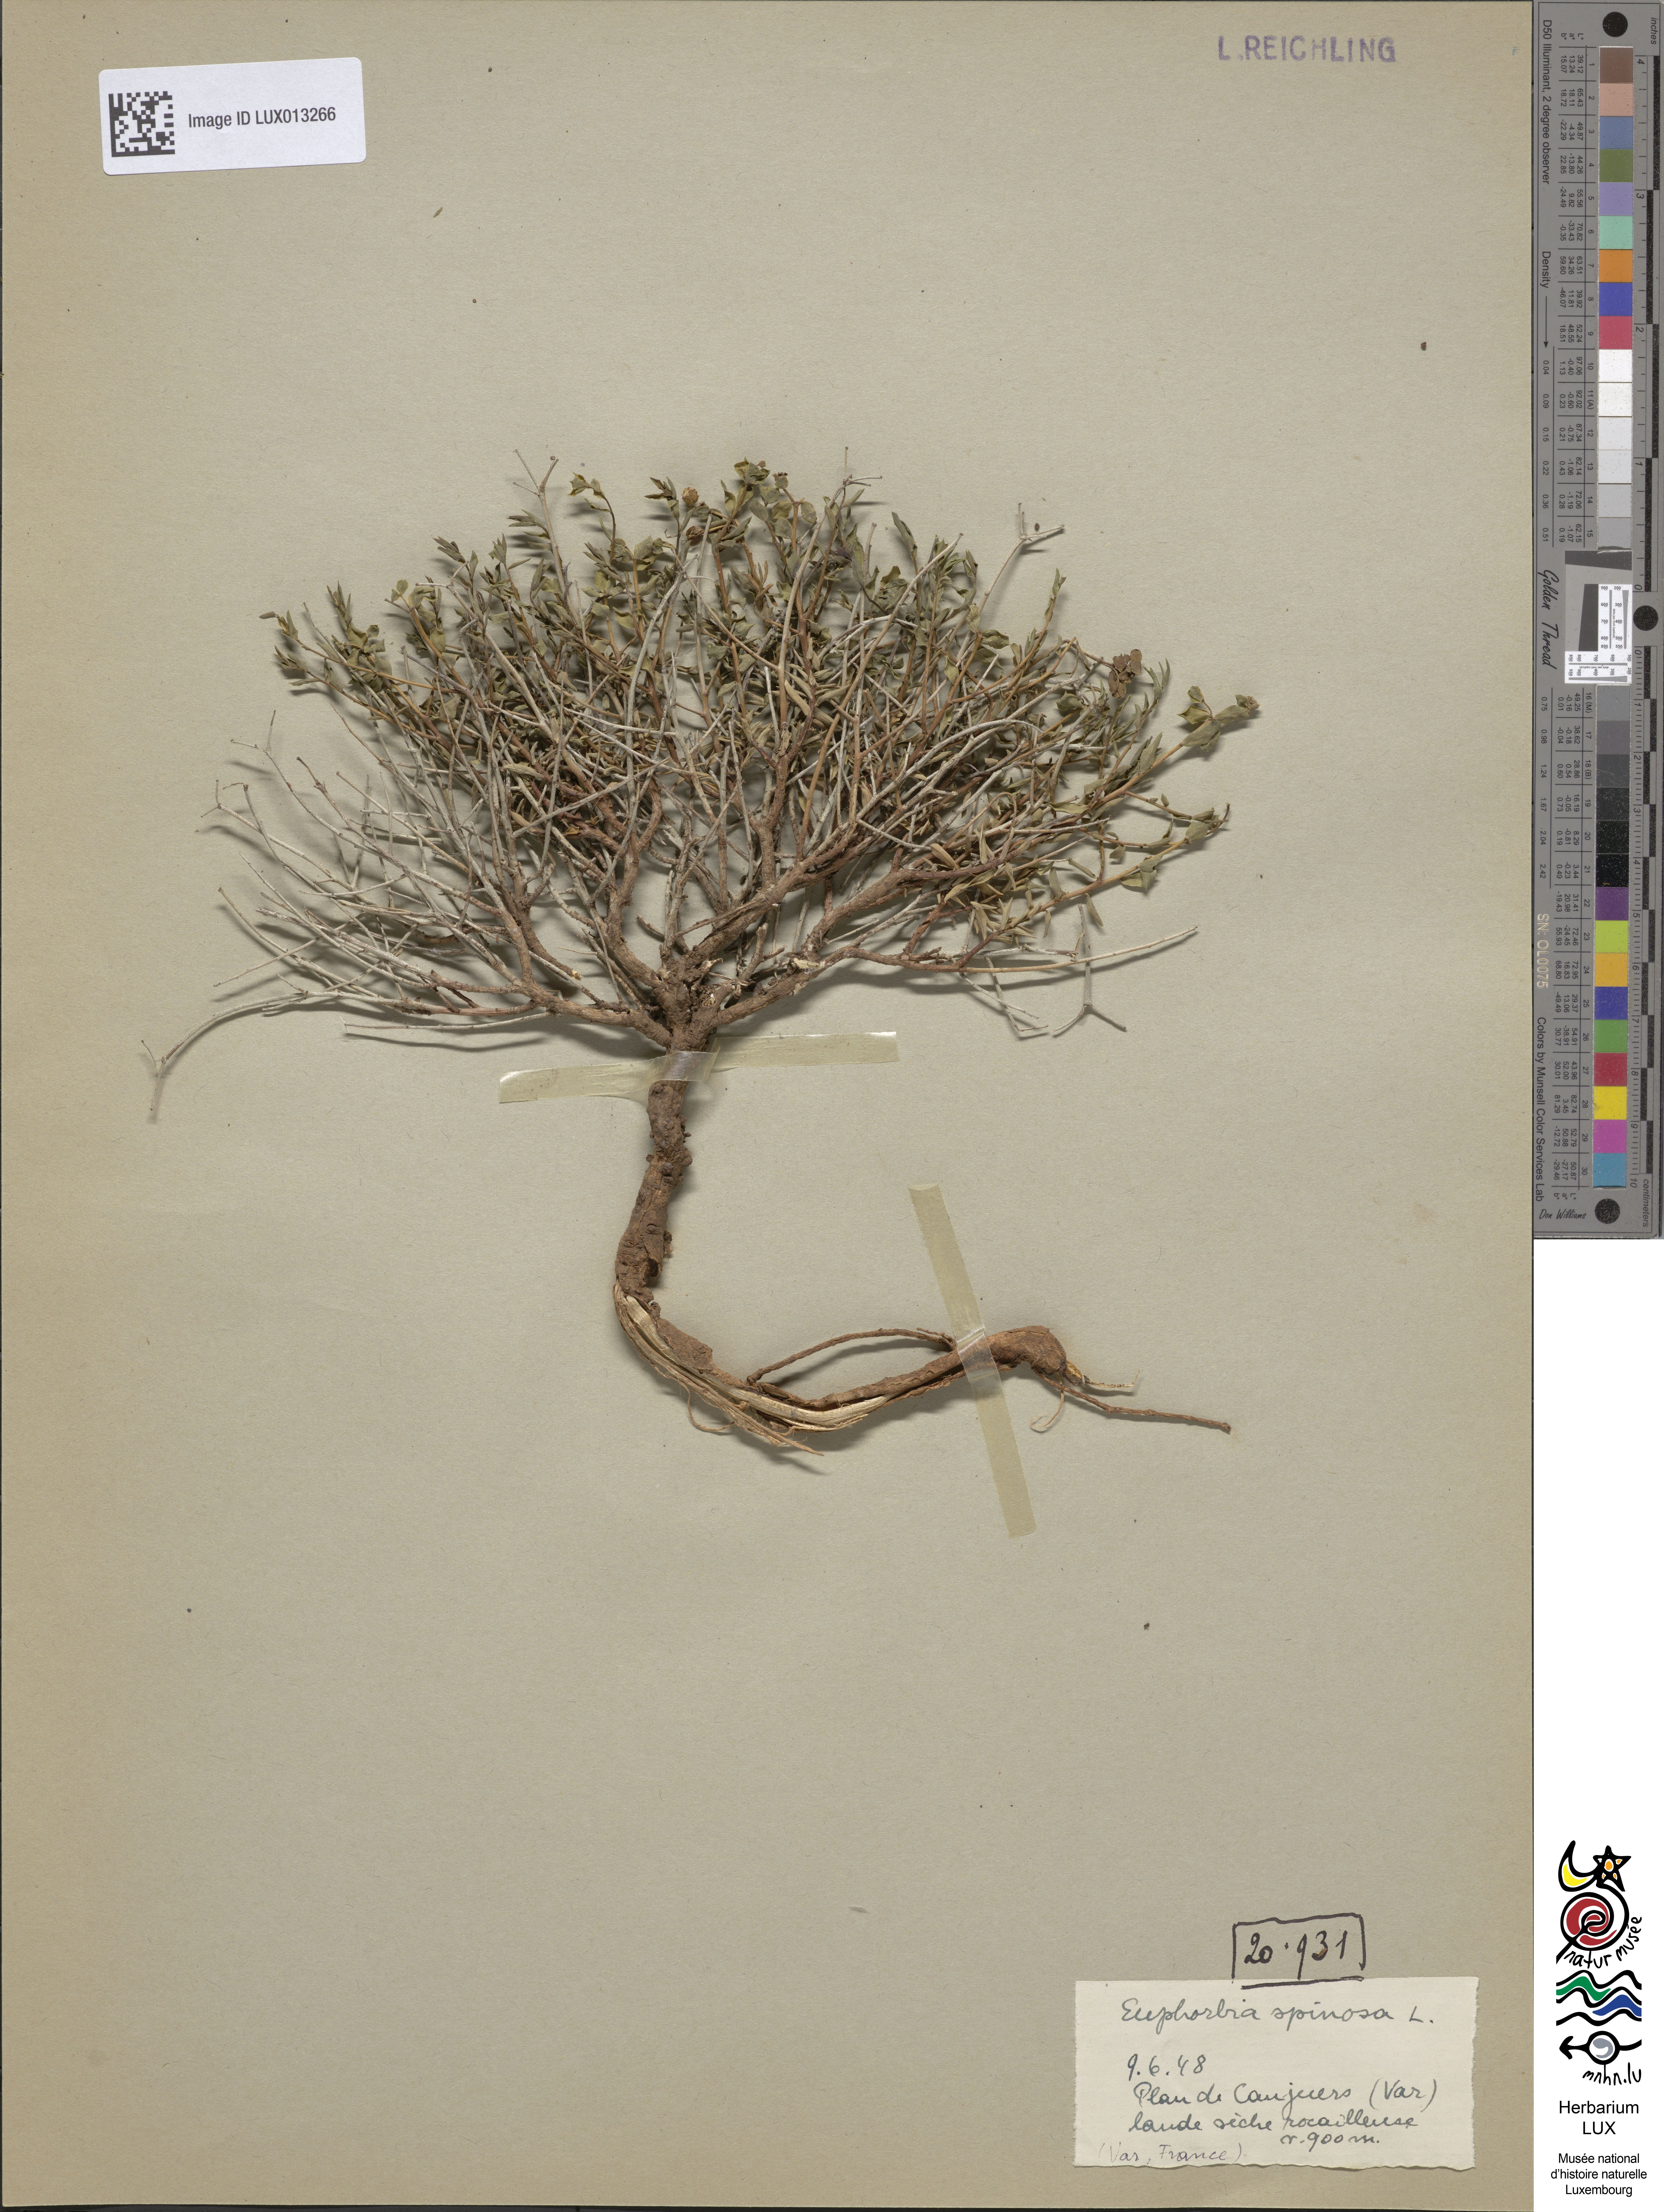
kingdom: Plantae
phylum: Tracheophyta
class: Magnoliopsida
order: Malpighiales
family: Euphorbiaceae
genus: Euphorbia
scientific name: Euphorbia spinosa
